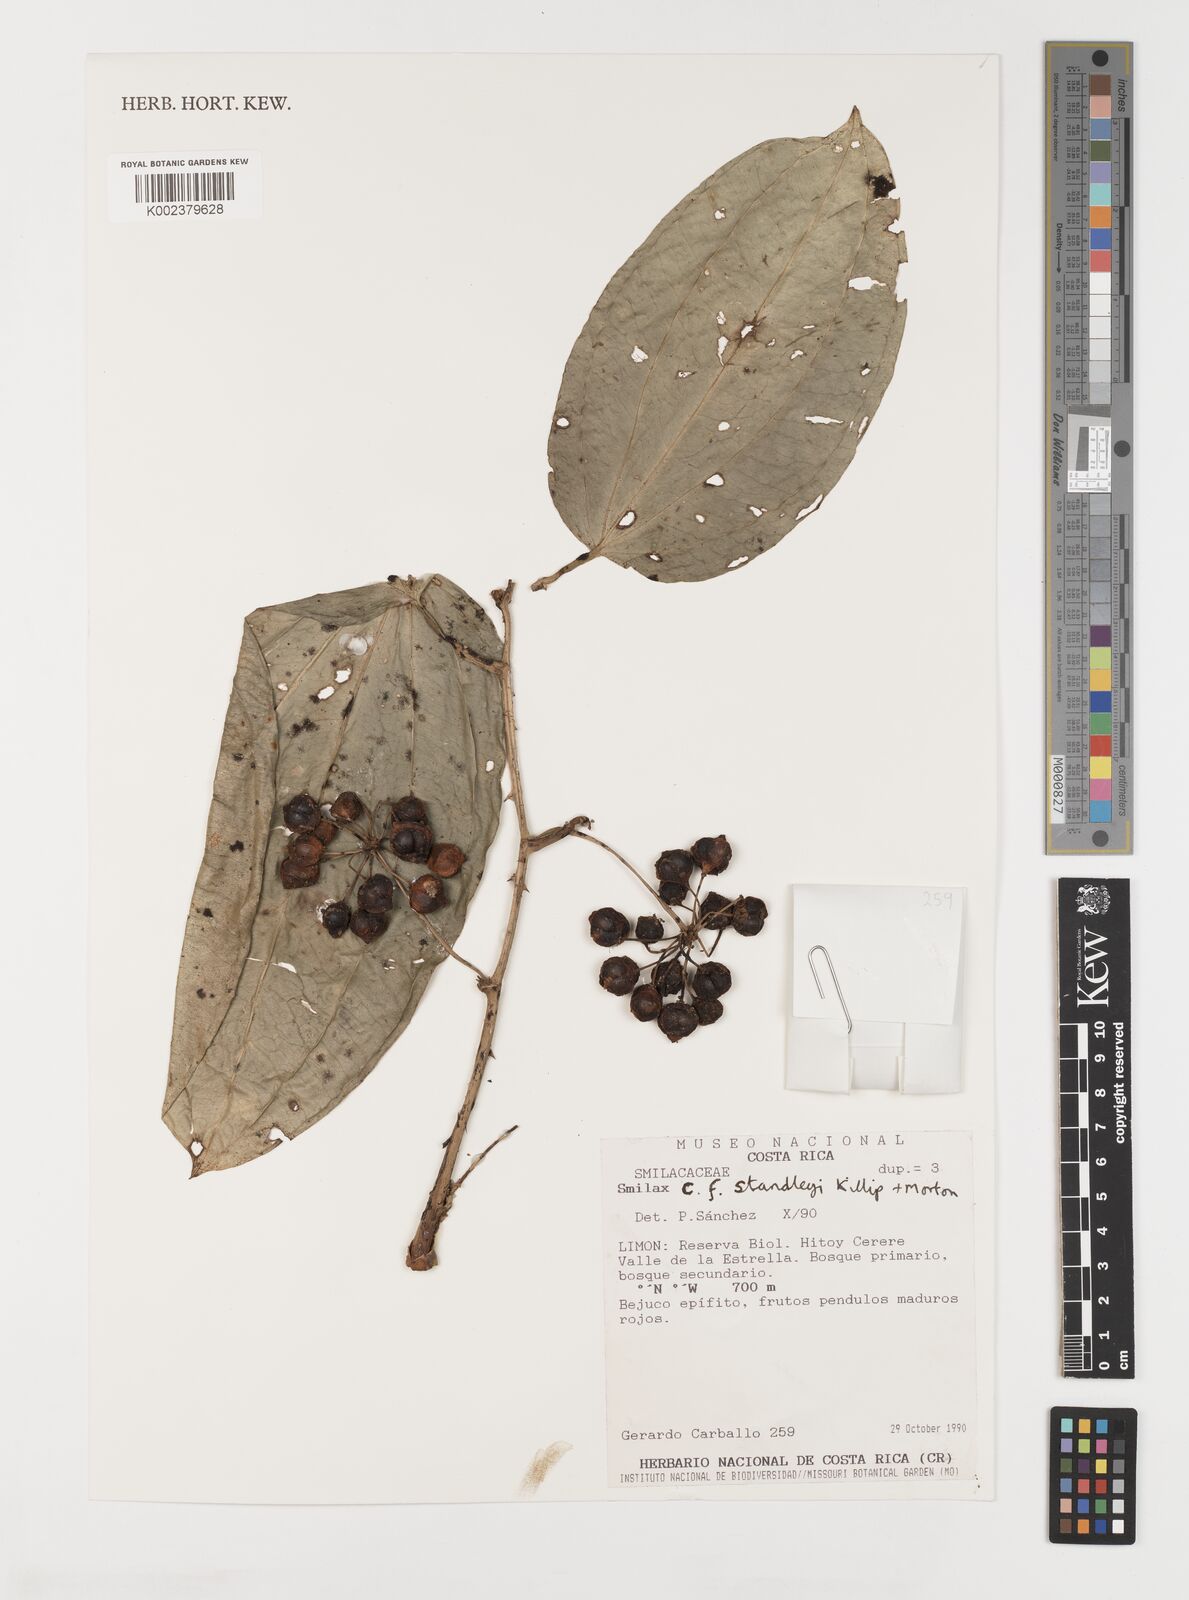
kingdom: Plantae
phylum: Tracheophyta
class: Liliopsida
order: Liliales
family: Smilacaceae
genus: Smilax
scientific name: Smilax officinalis
